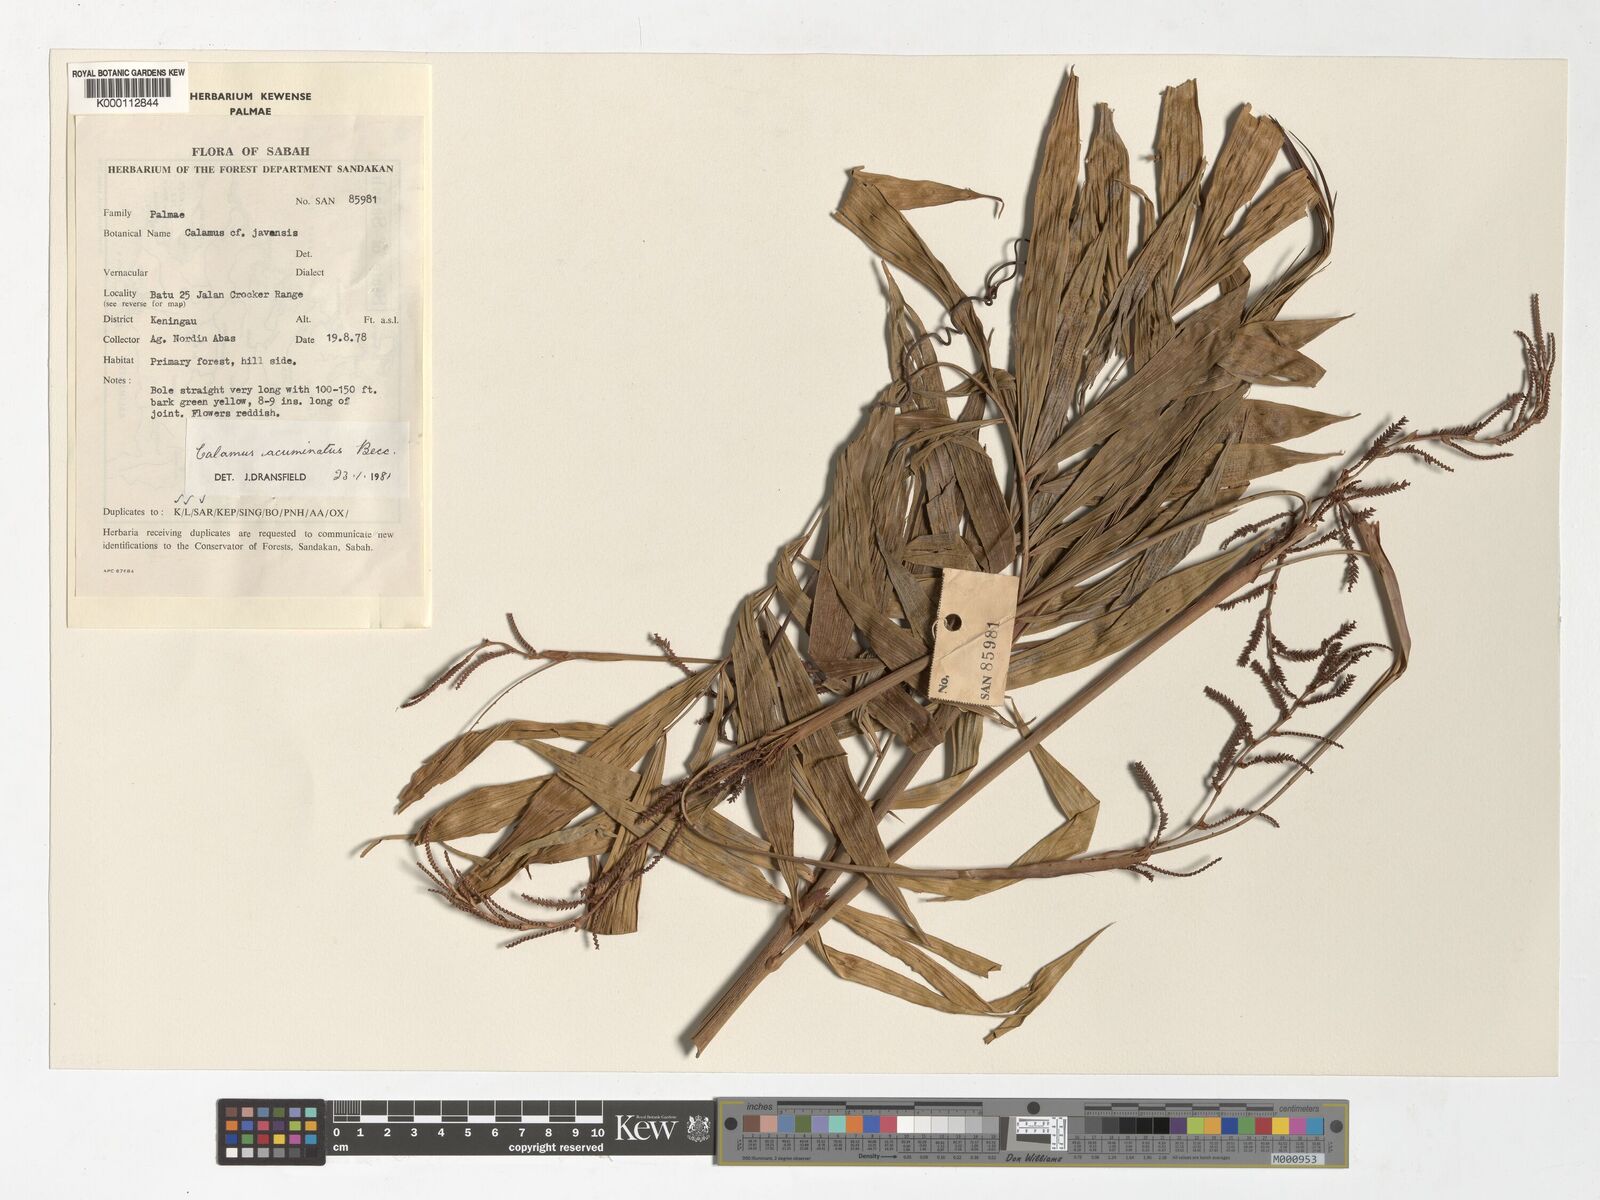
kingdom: Plantae
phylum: Tracheophyta
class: Liliopsida
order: Arecales
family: Arecaceae
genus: Calamus
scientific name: Calamus javensis
